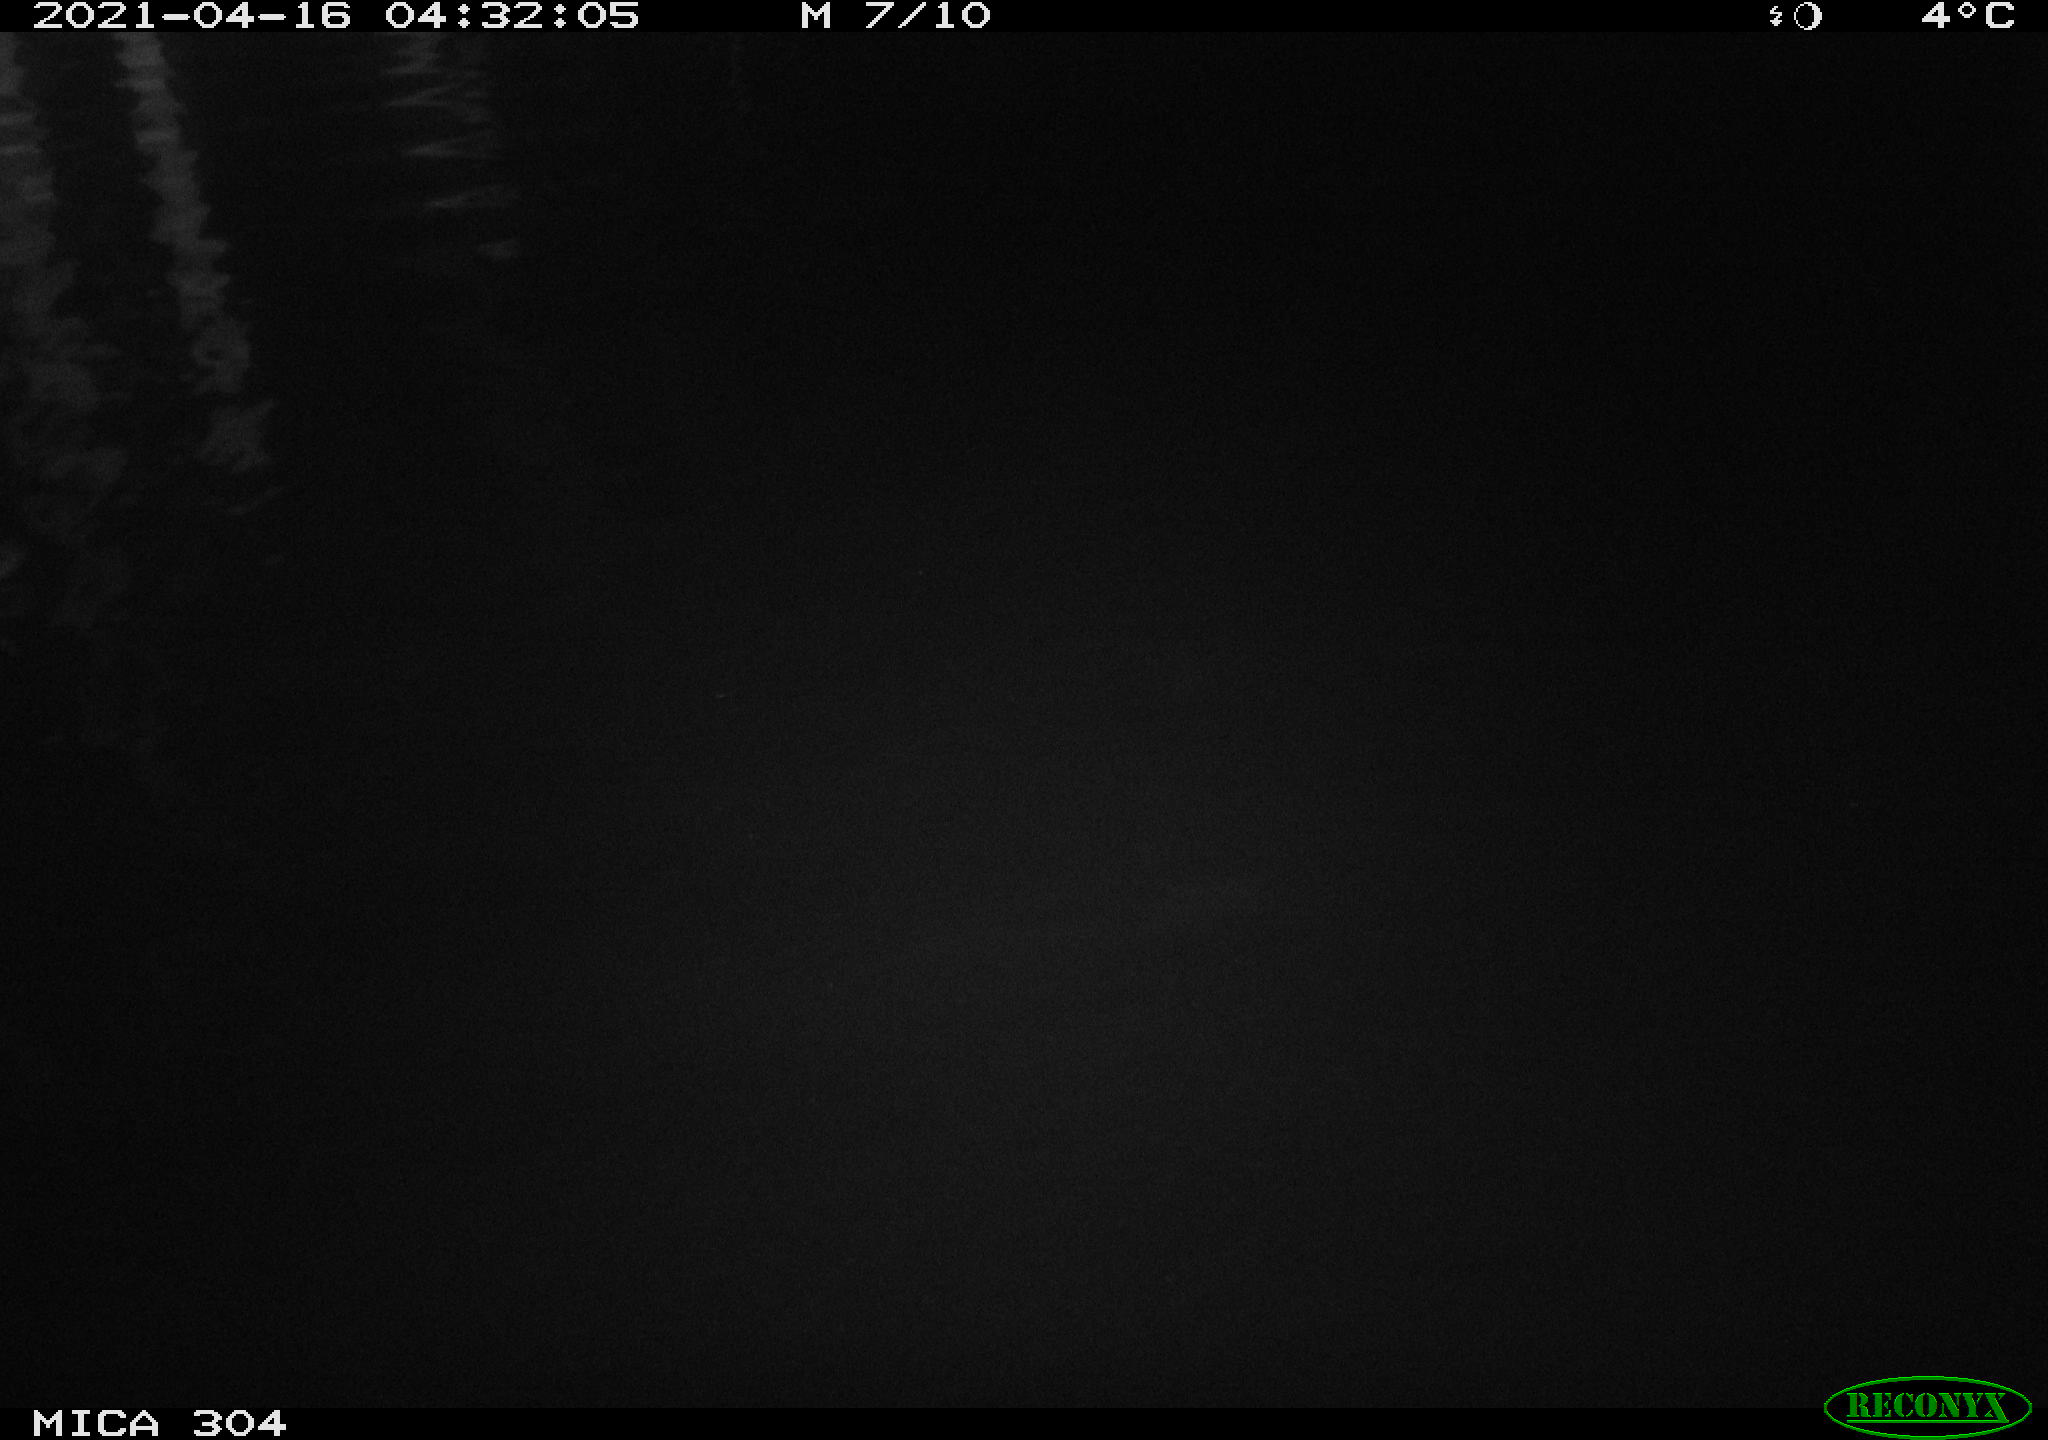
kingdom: Animalia
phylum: Chordata
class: Aves
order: Anseriformes
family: Anatidae
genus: Anas
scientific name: Anas
